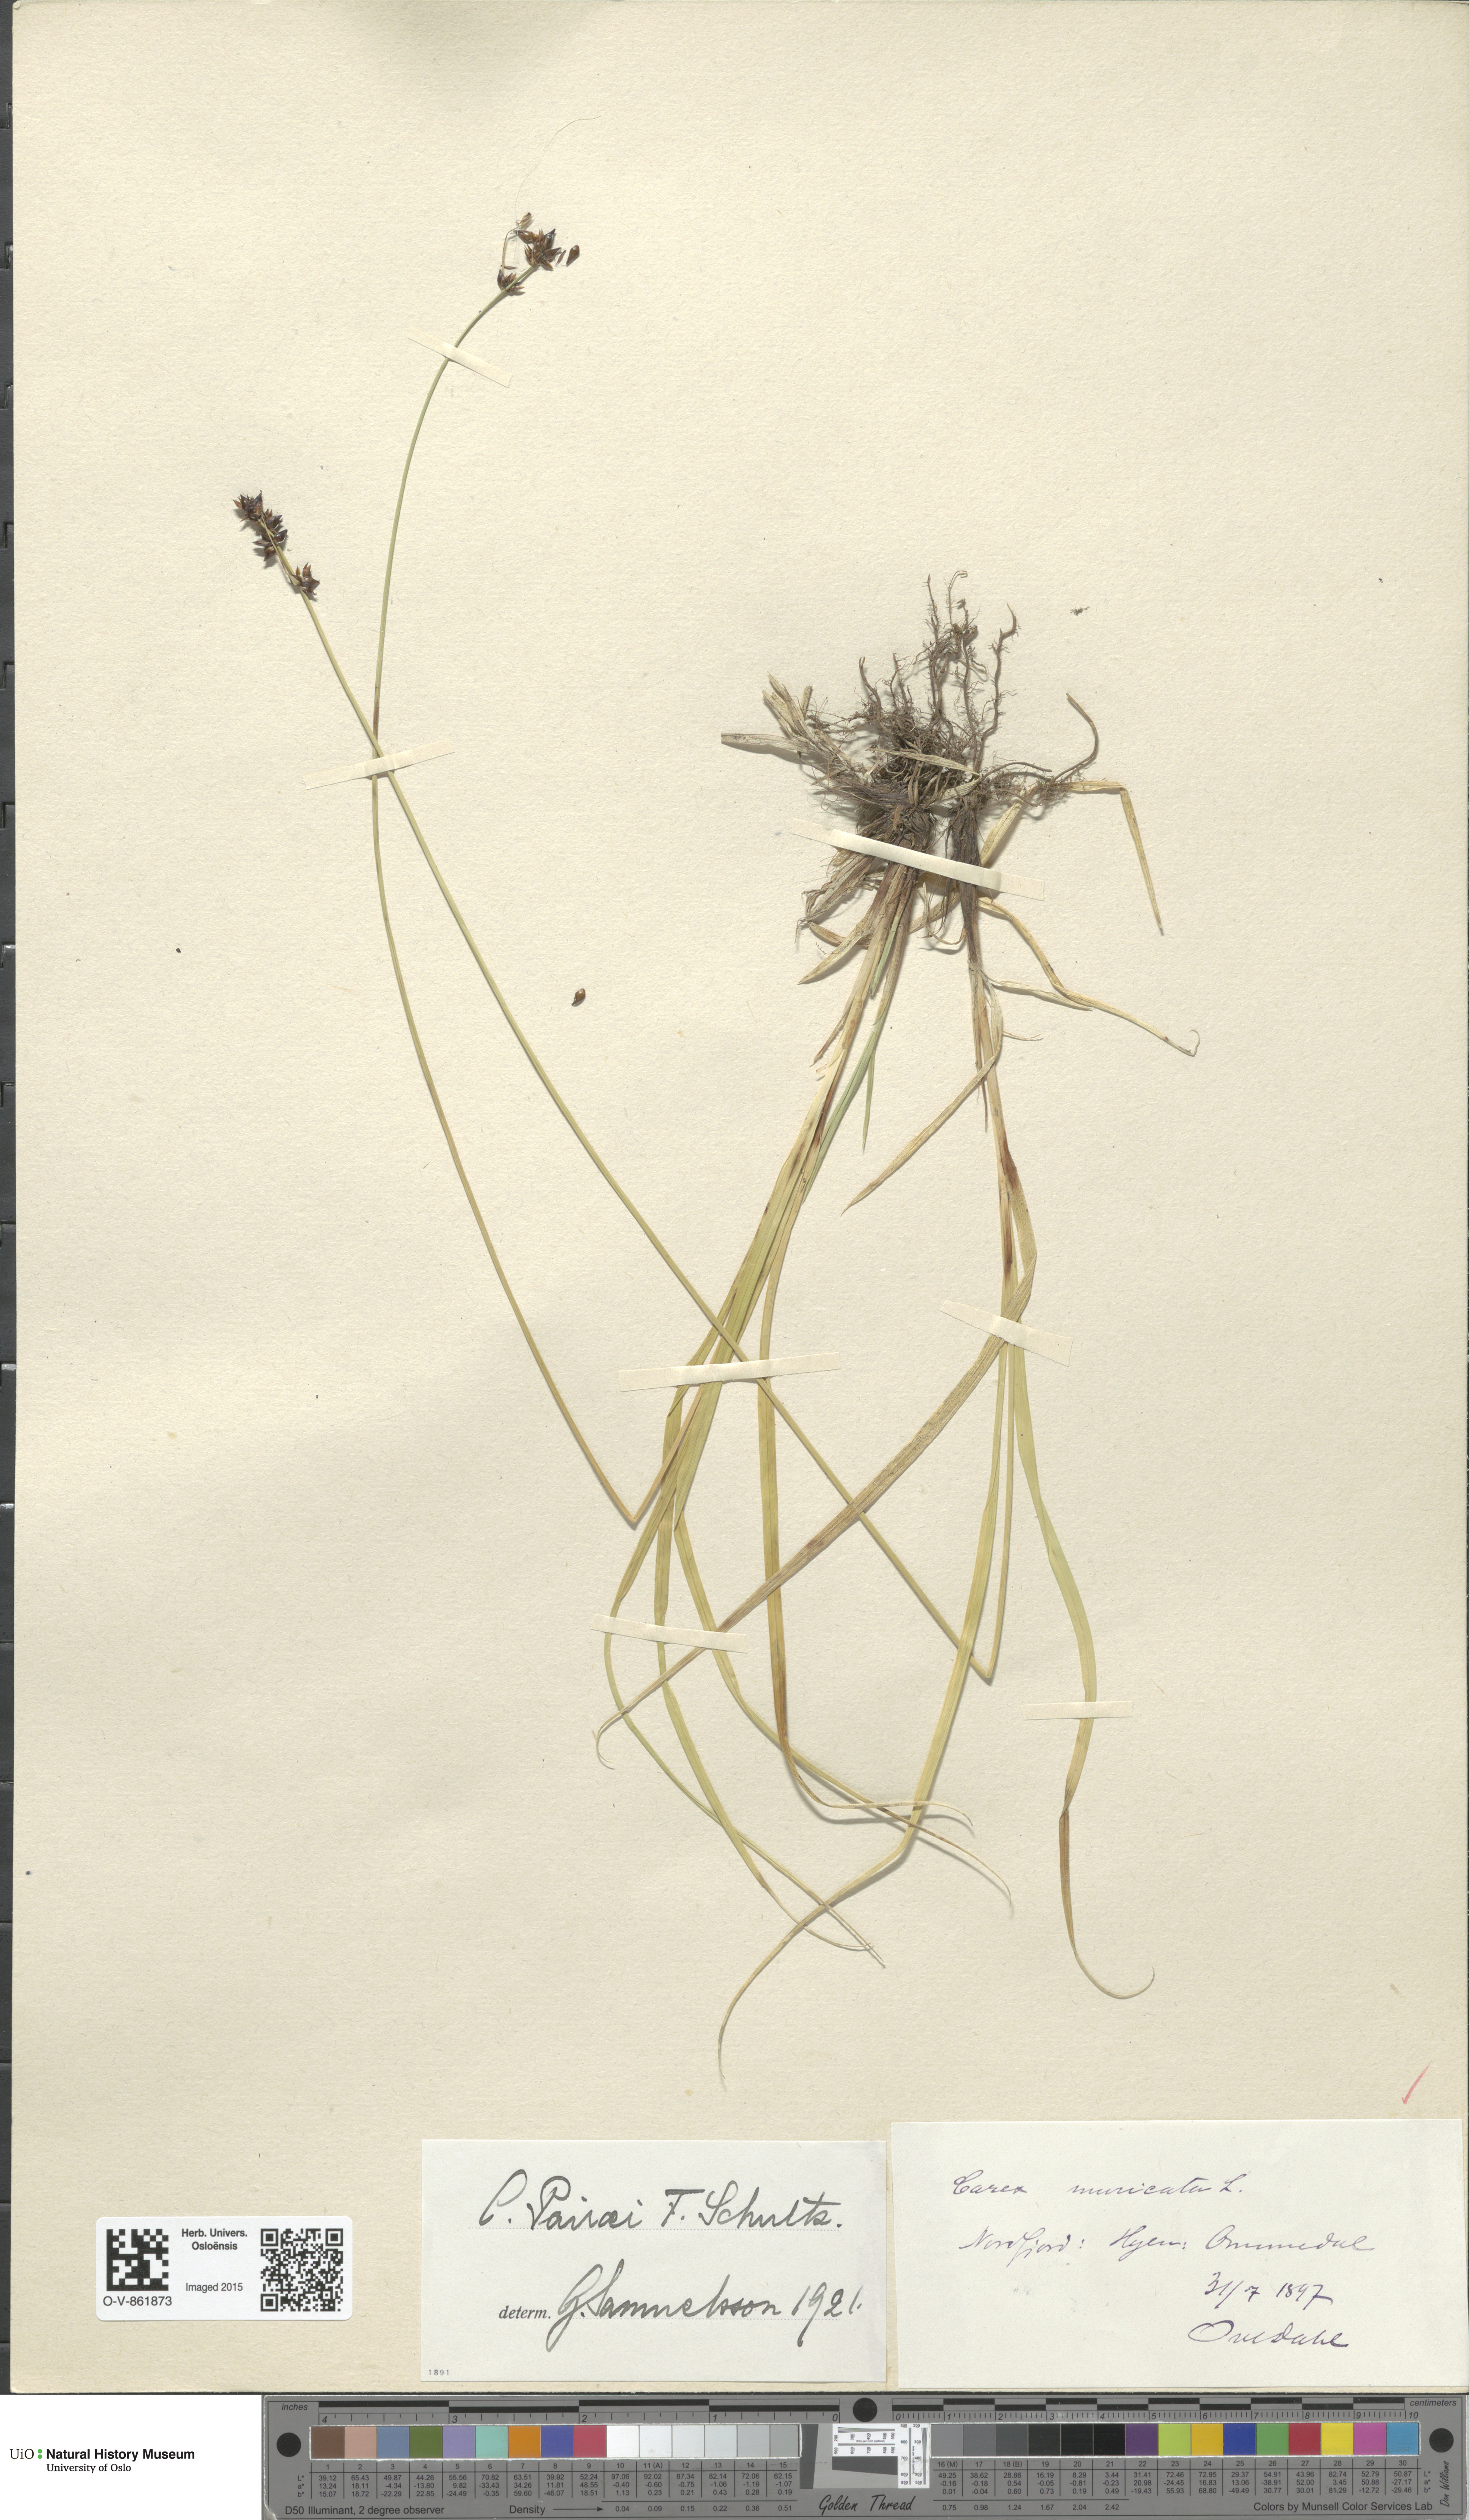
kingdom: Plantae
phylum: Tracheophyta
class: Liliopsida
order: Poales
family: Cyperaceae
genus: Carex
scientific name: Carex pairae
